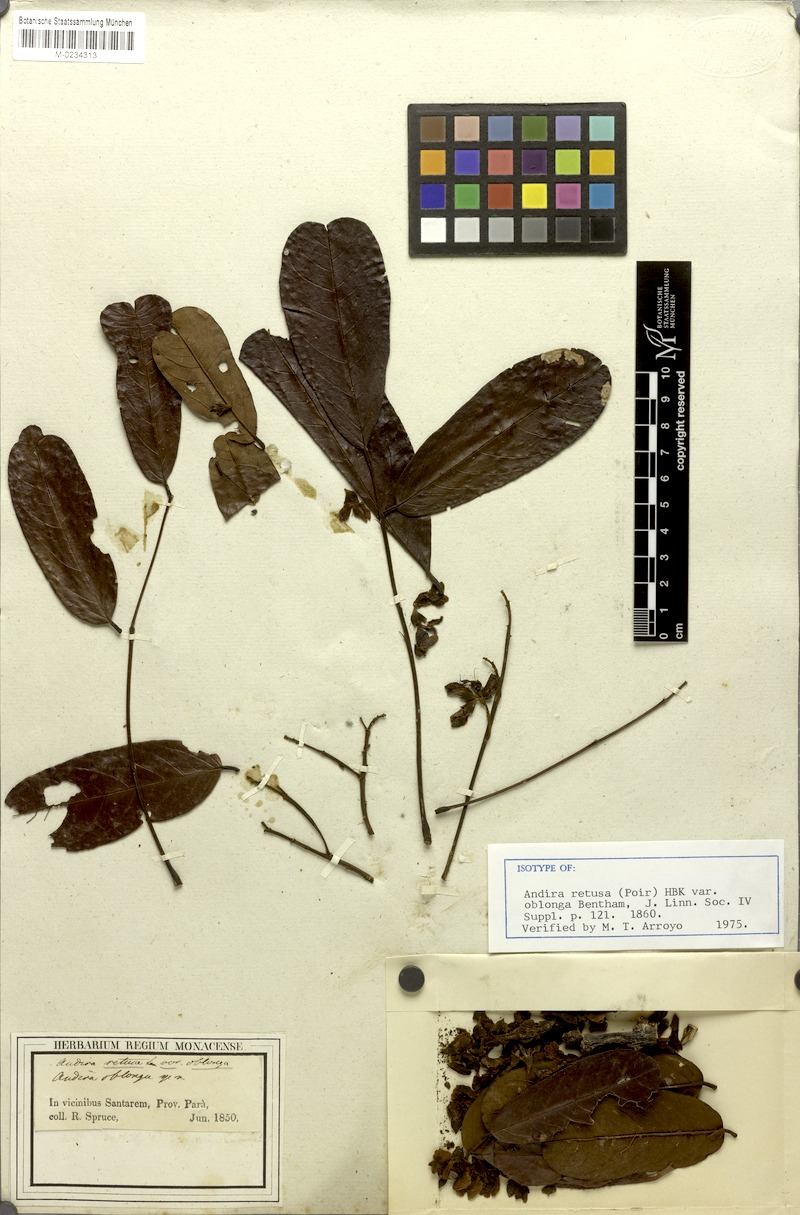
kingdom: Plantae
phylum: Tracheophyta
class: Magnoliopsida
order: Fabales
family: Fabaceae
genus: Andira
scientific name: Andira surinamensis
